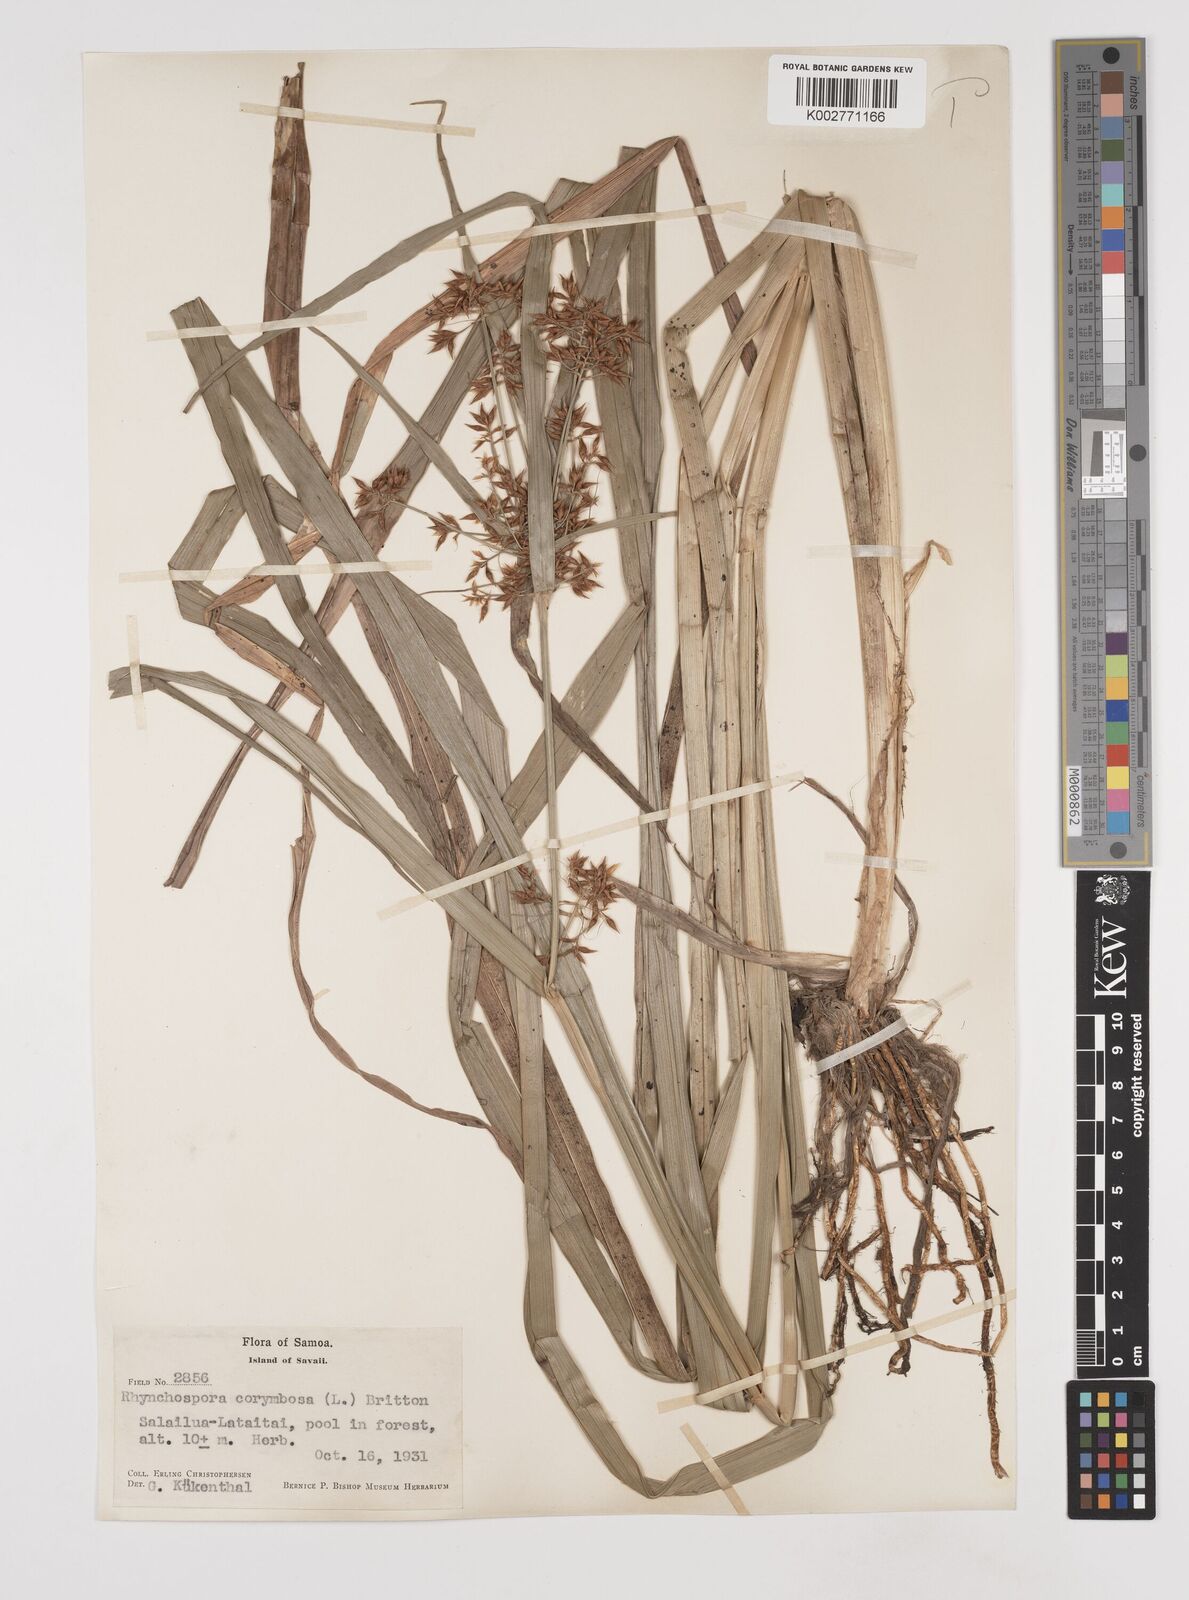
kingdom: Plantae
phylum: Tracheophyta
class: Liliopsida
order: Poales
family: Cyperaceae
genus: Rhynchospora
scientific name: Rhynchospora corymbosa
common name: Golden beak sedge
